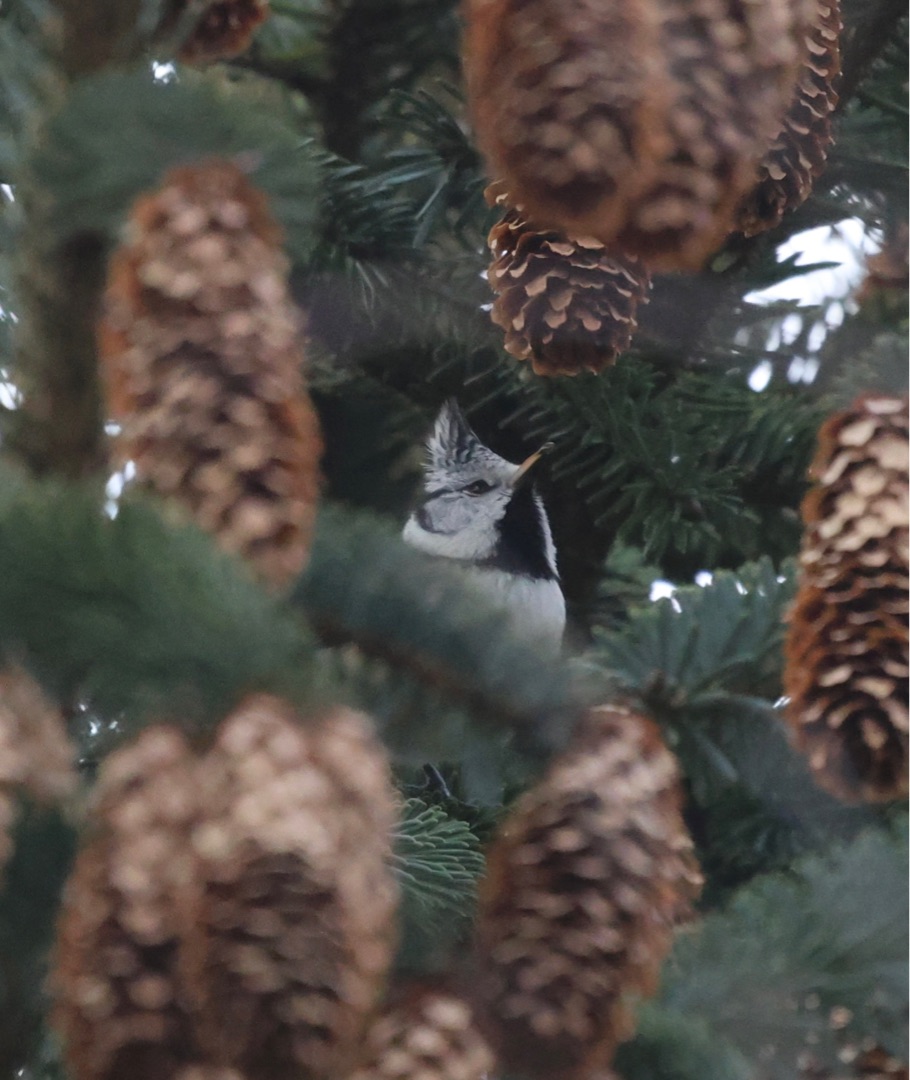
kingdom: Animalia
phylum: Chordata
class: Aves
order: Passeriformes
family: Paridae
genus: Lophophanes
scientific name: Lophophanes cristatus
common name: Topmejse
